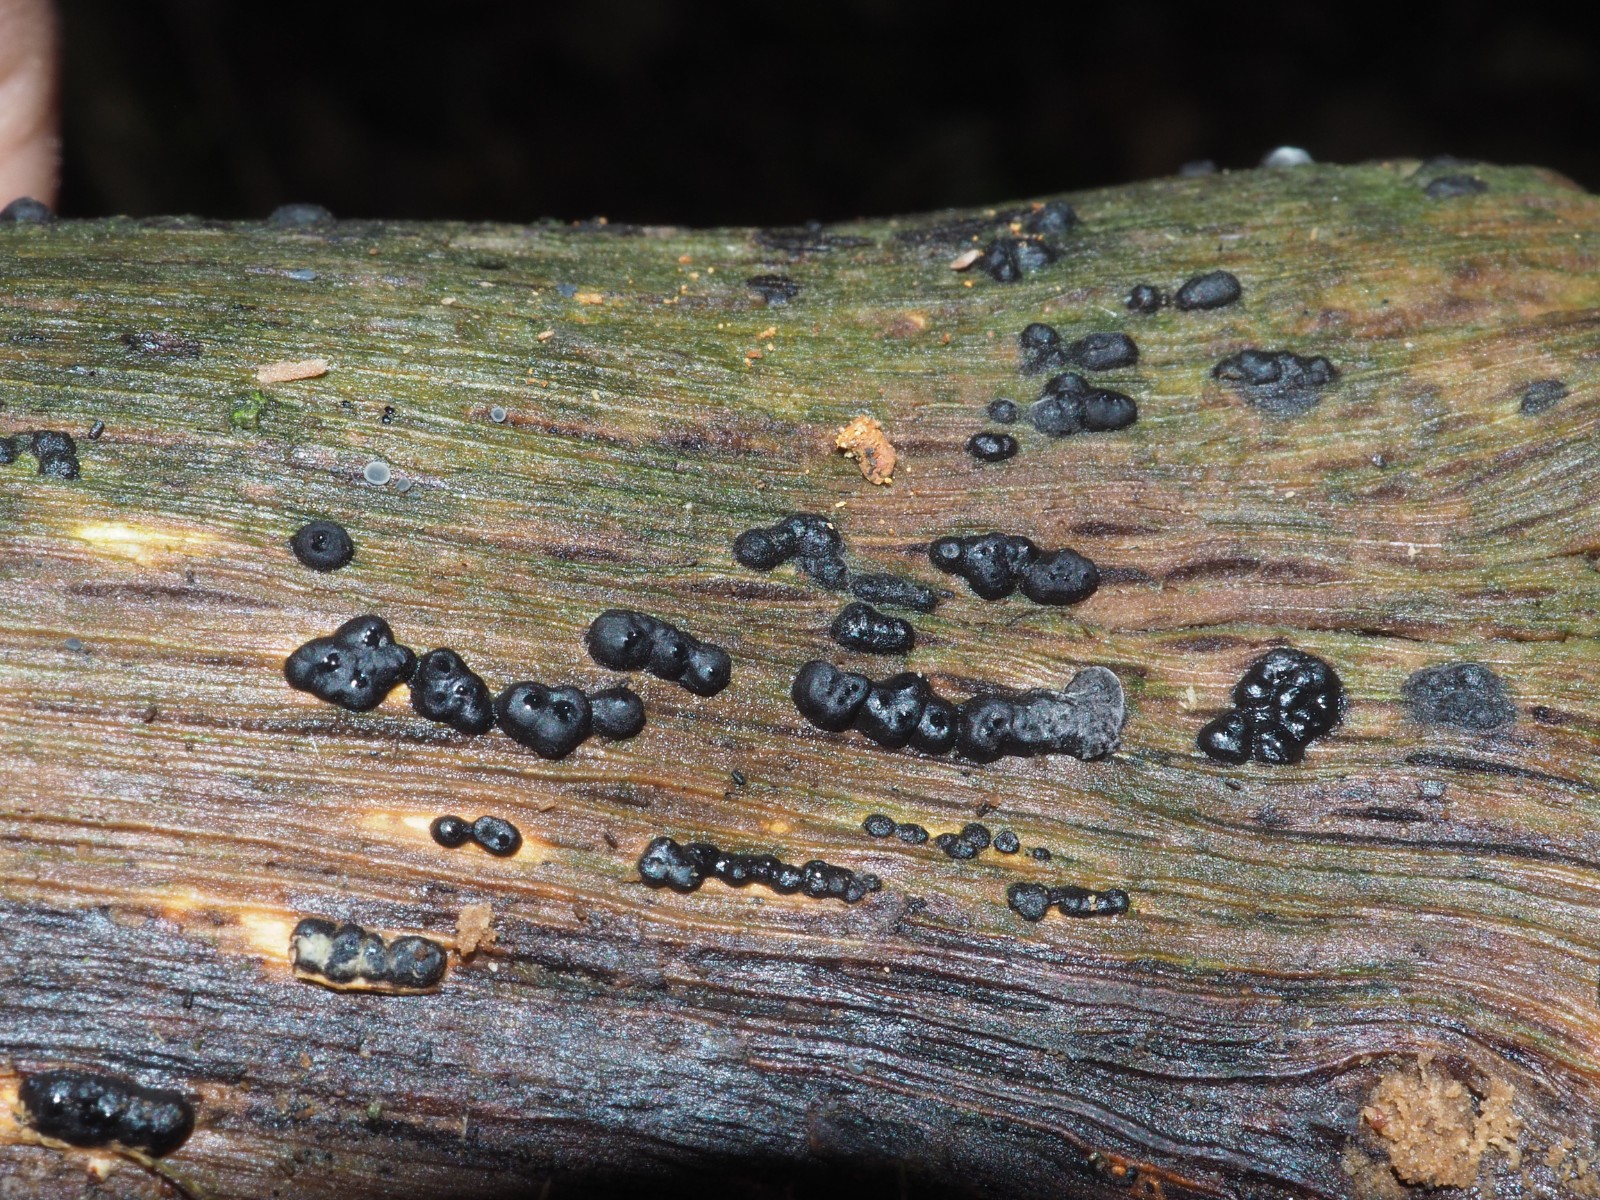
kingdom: Fungi
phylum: Ascomycota
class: Sordariomycetes
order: Xylariales
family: Xylariaceae
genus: Nemania
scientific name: Nemania
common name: kuldyne
